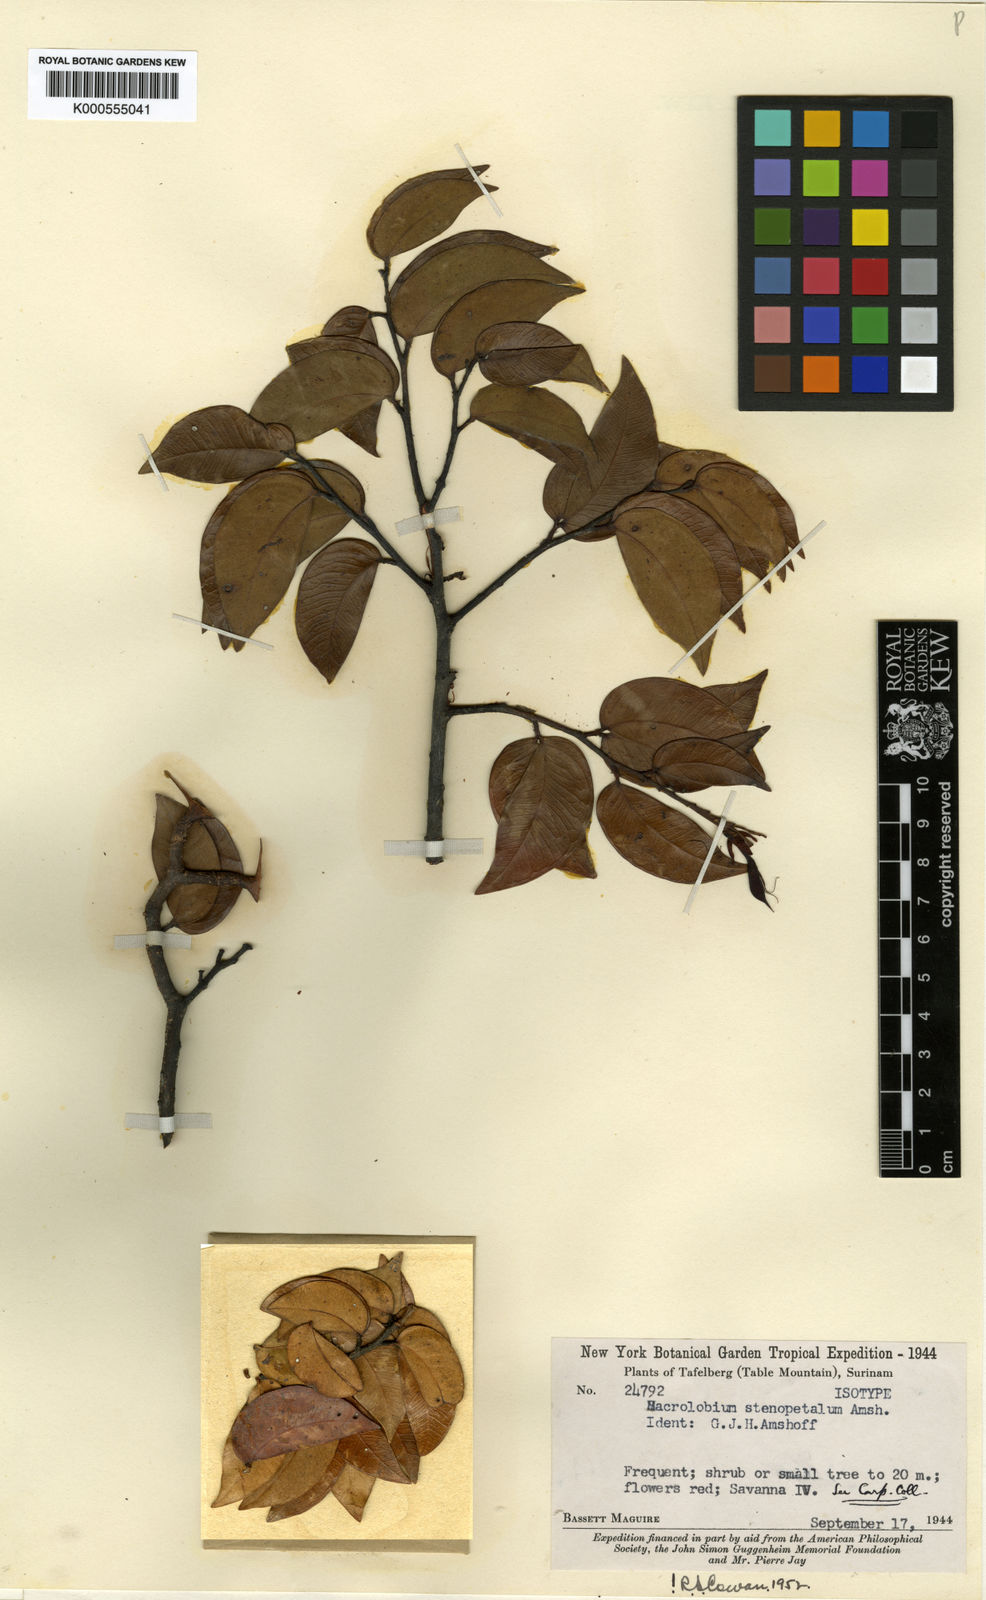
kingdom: Plantae
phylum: Tracheophyta
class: Magnoliopsida
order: Fabales
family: Fabaceae
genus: Macrolobium
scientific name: Macrolobium stenopetalum
